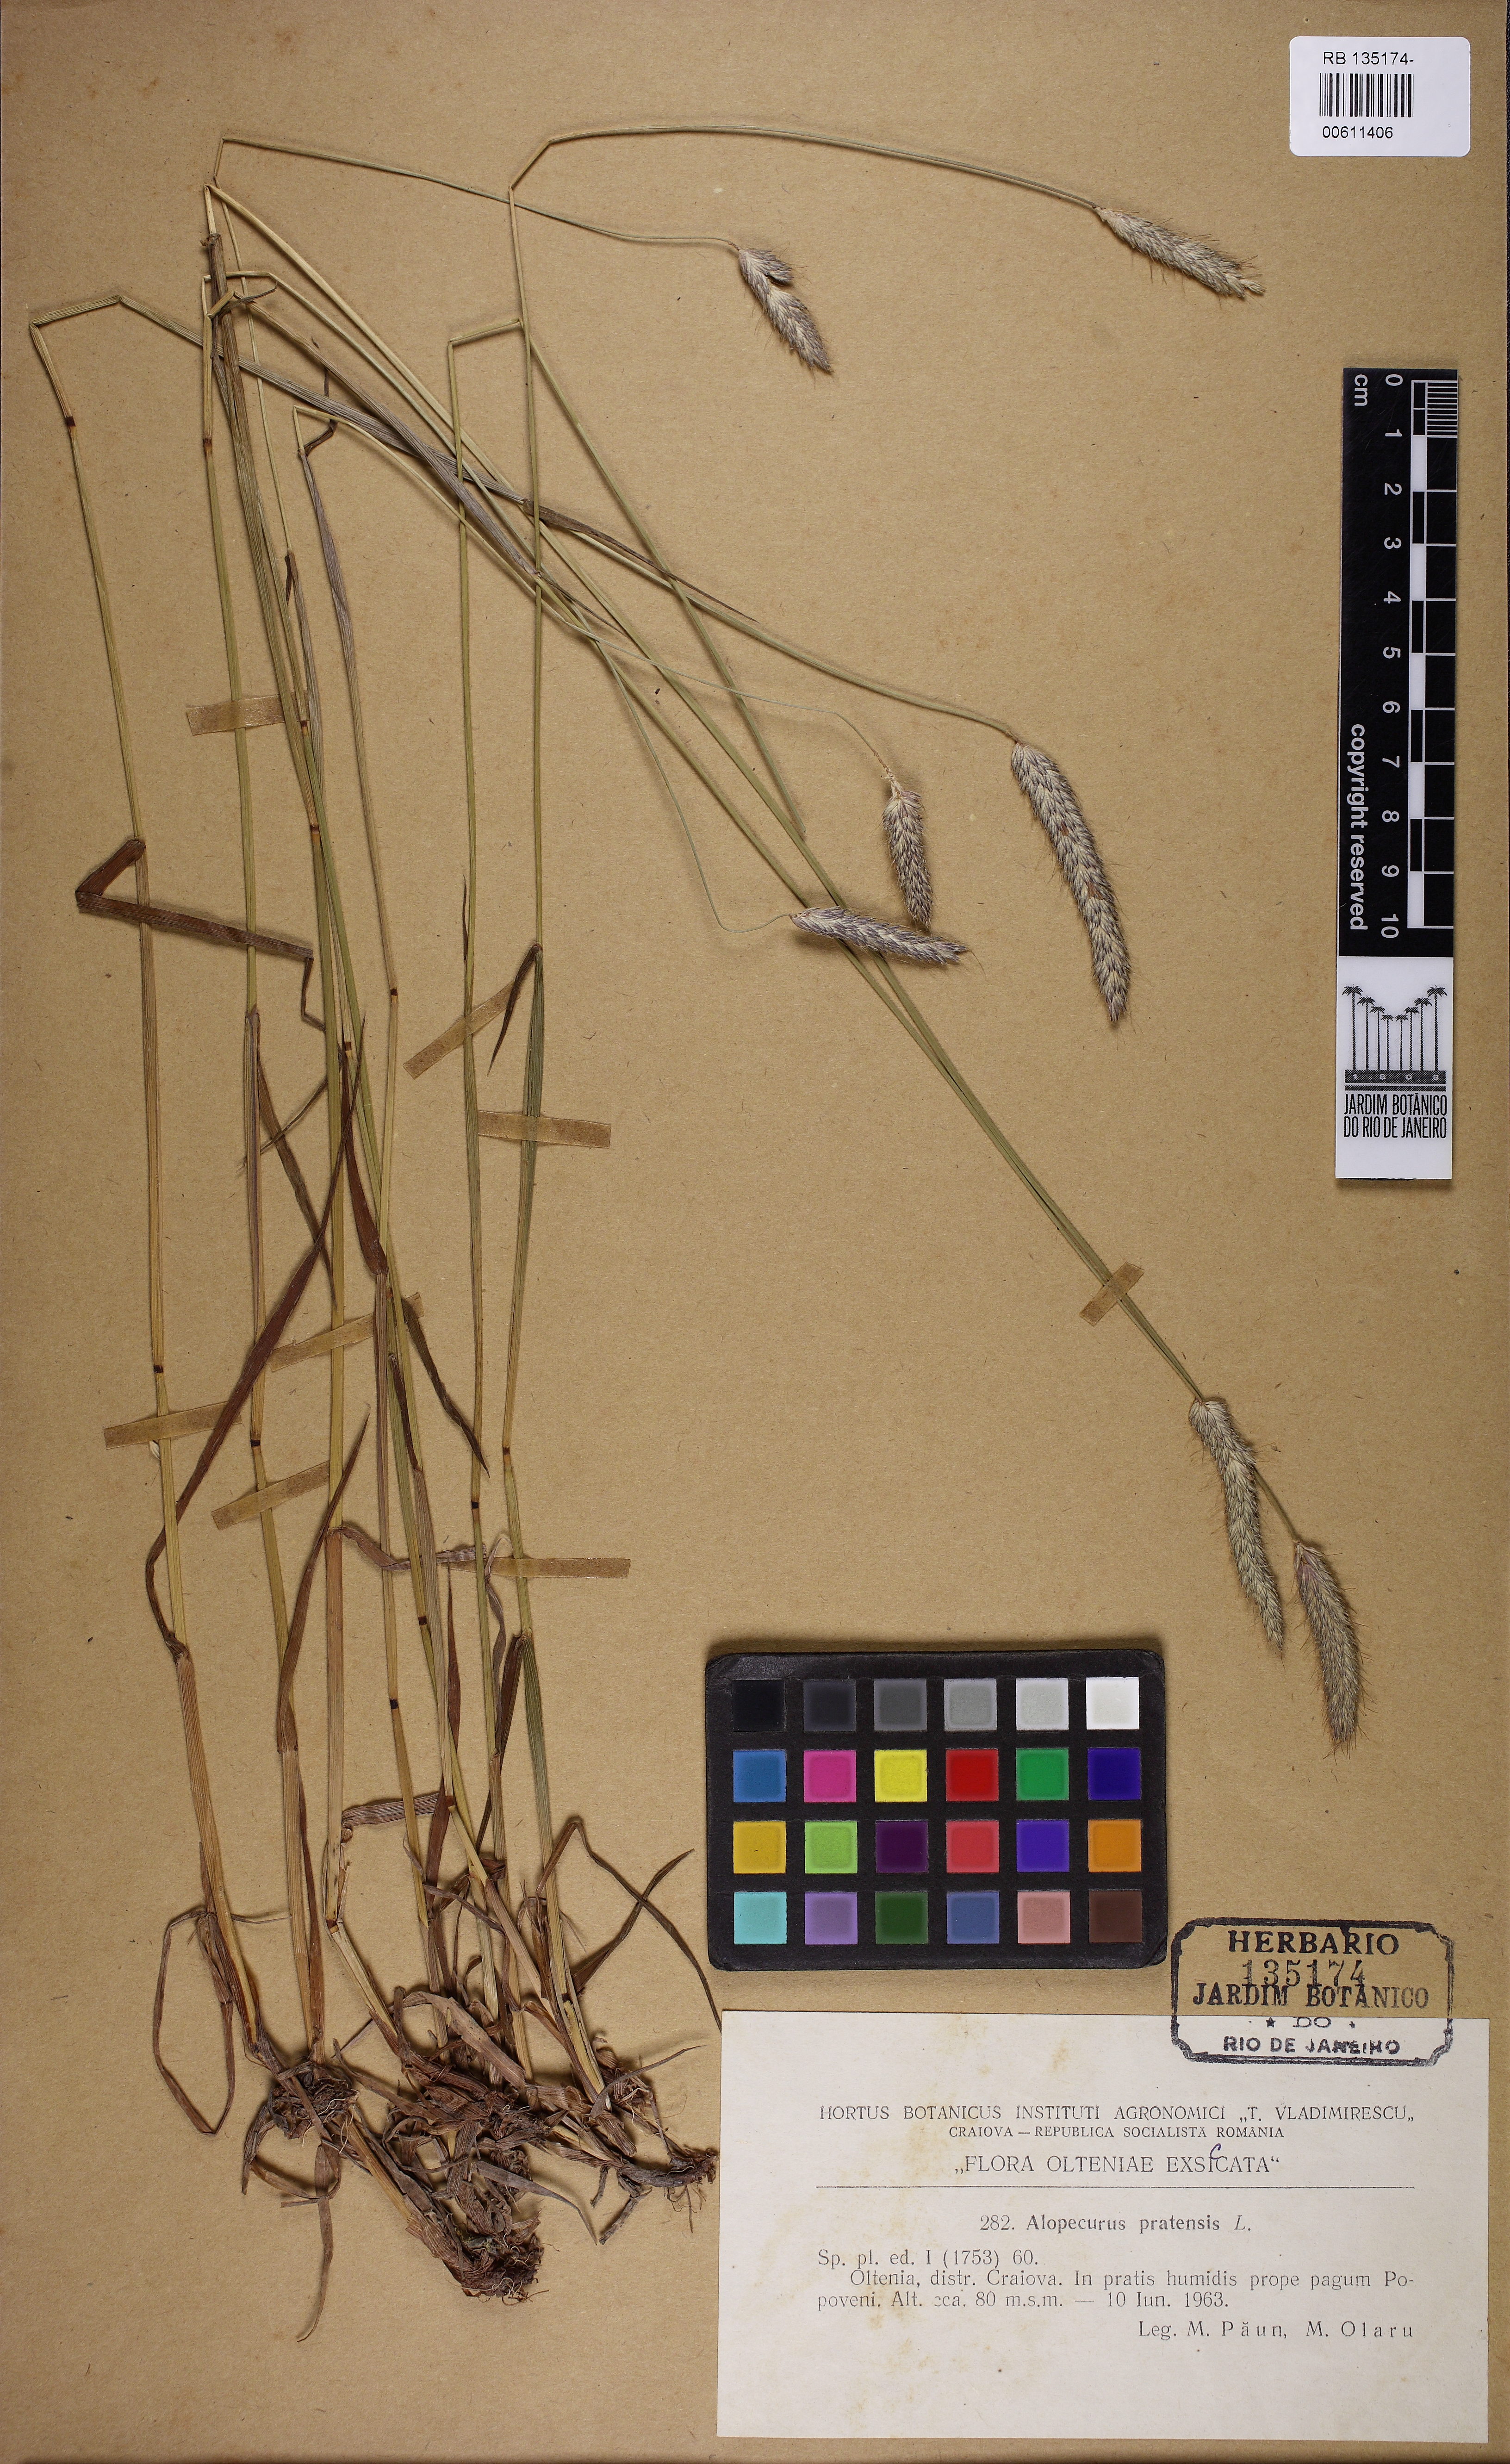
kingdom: Plantae
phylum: Tracheophyta
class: Liliopsida
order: Poales
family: Poaceae
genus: Alopecurus
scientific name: Alopecurus pratensis
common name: Meadow foxtail
